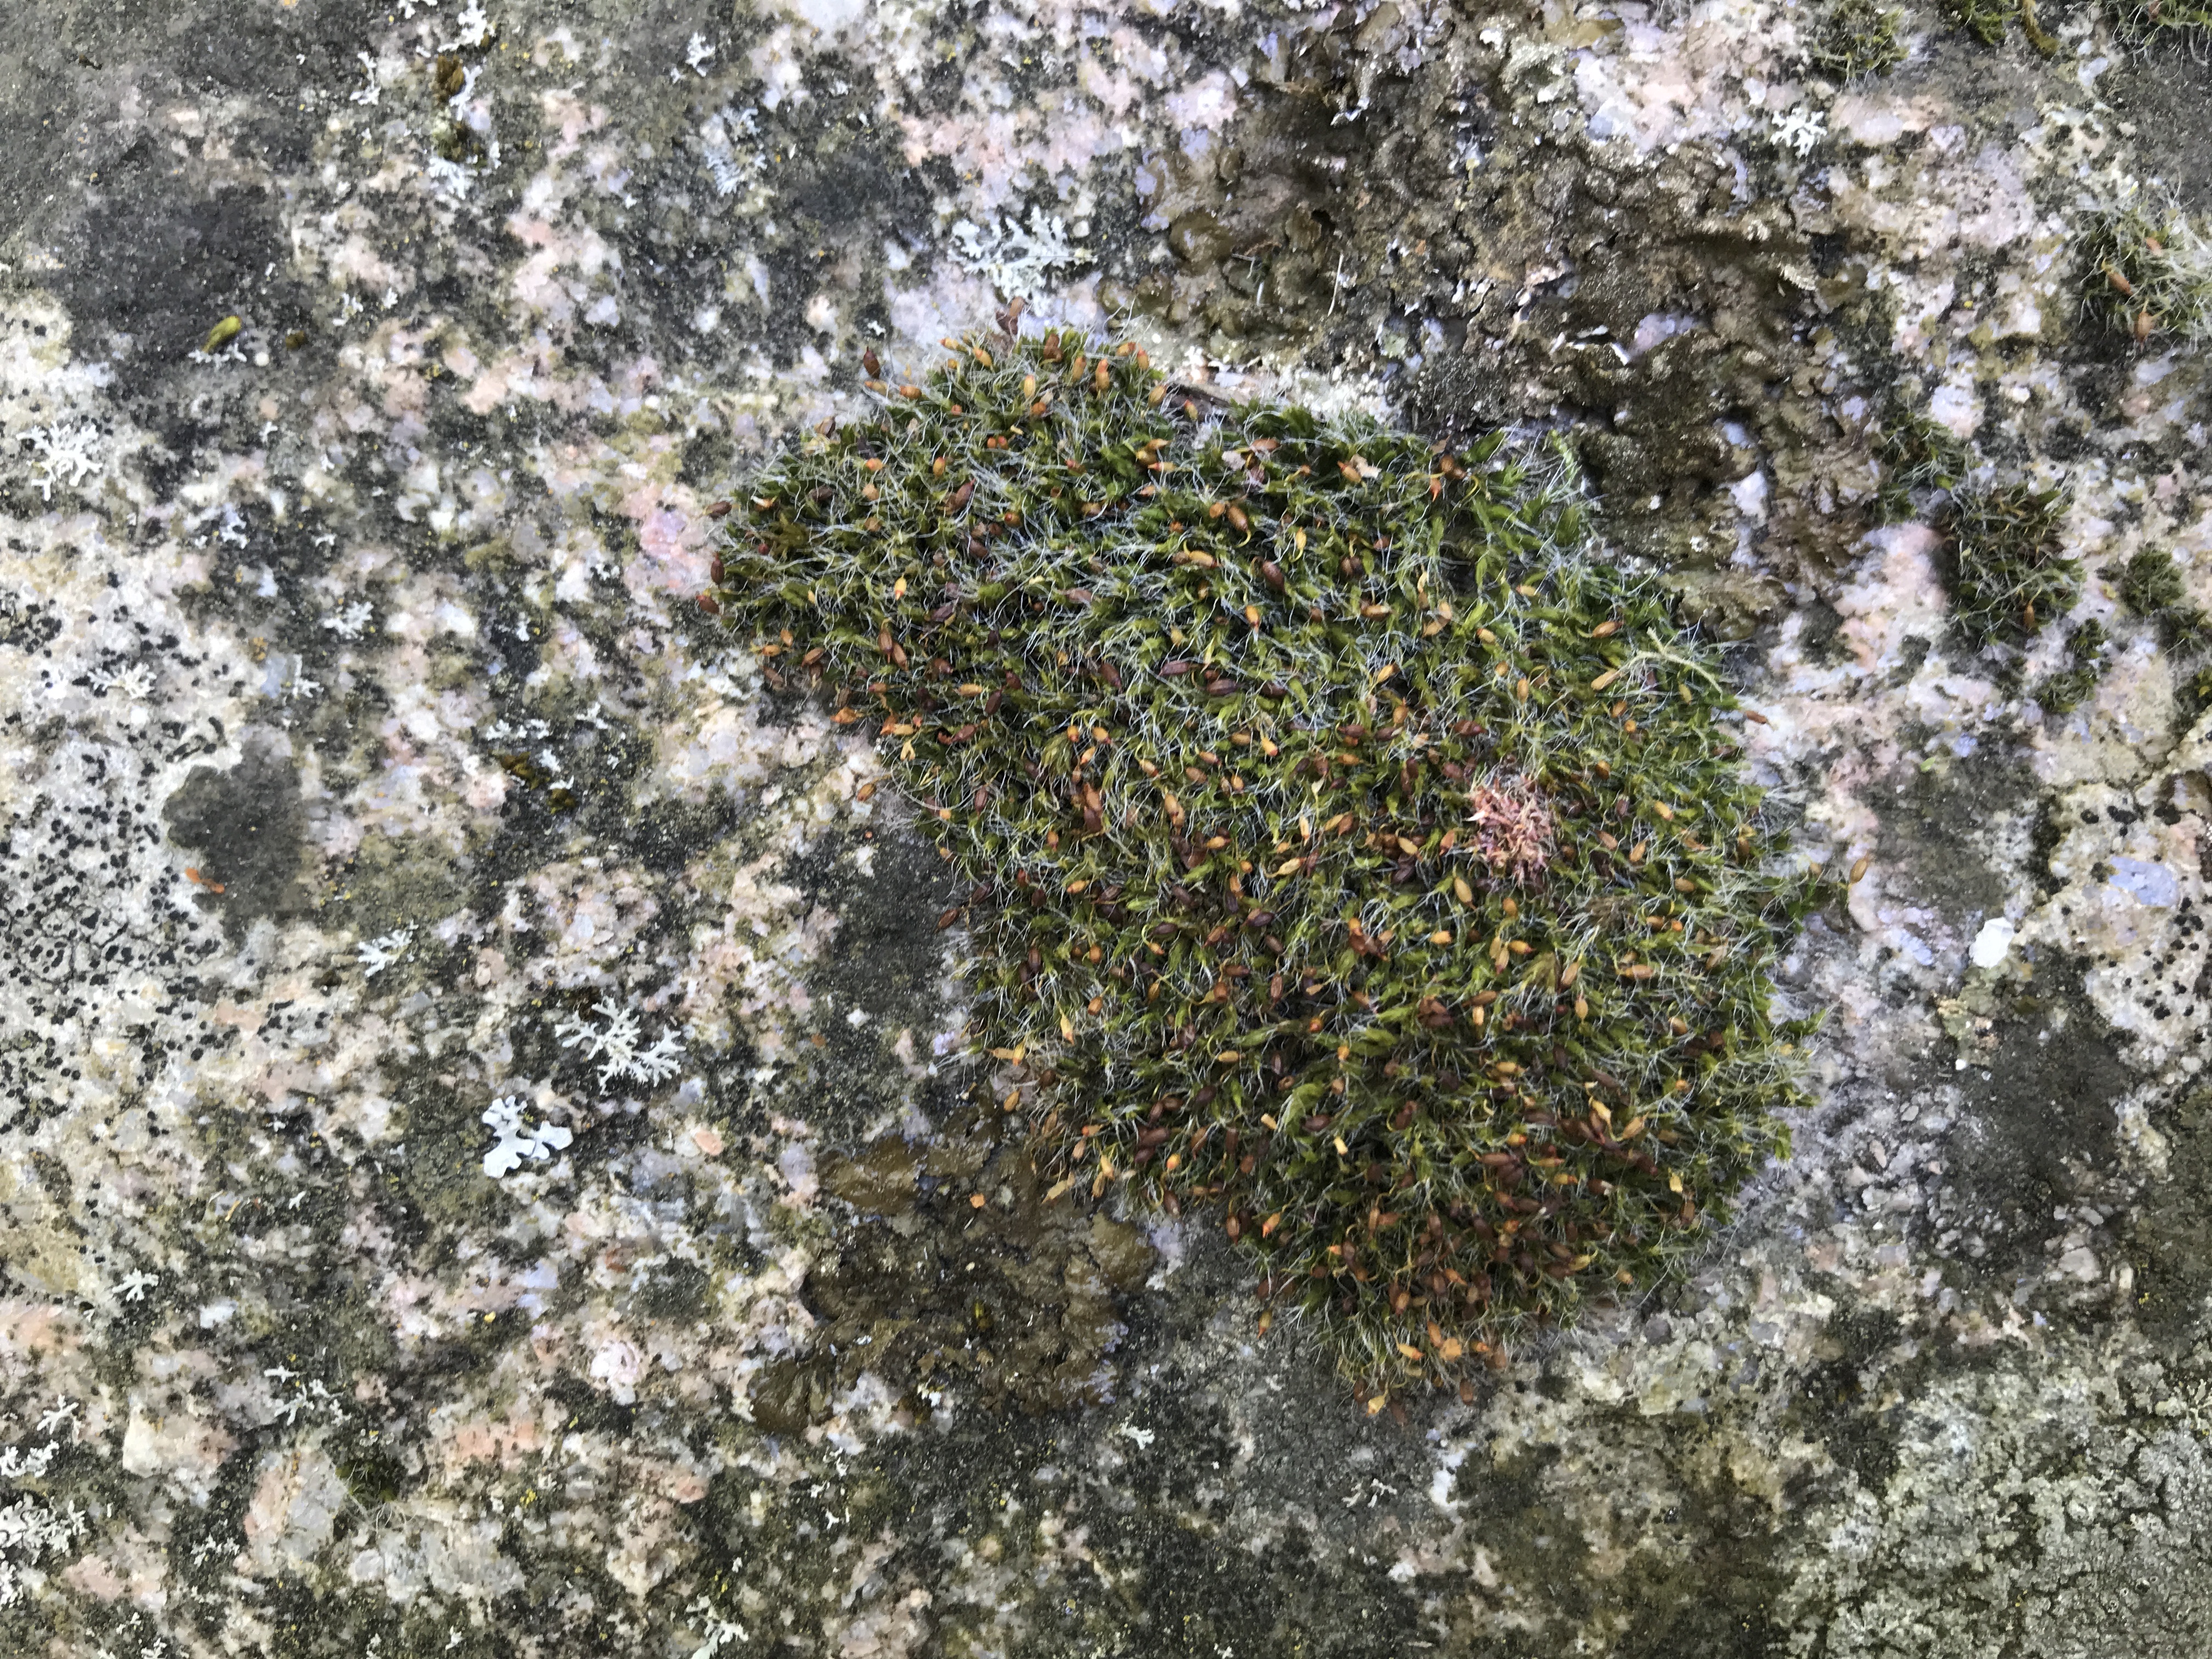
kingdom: Plantae
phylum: Bryophyta
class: Bryopsida
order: Grimmiales
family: Grimmiaceae
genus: Grimmia
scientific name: Grimmia pulvinata
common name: Pude-gråmos
